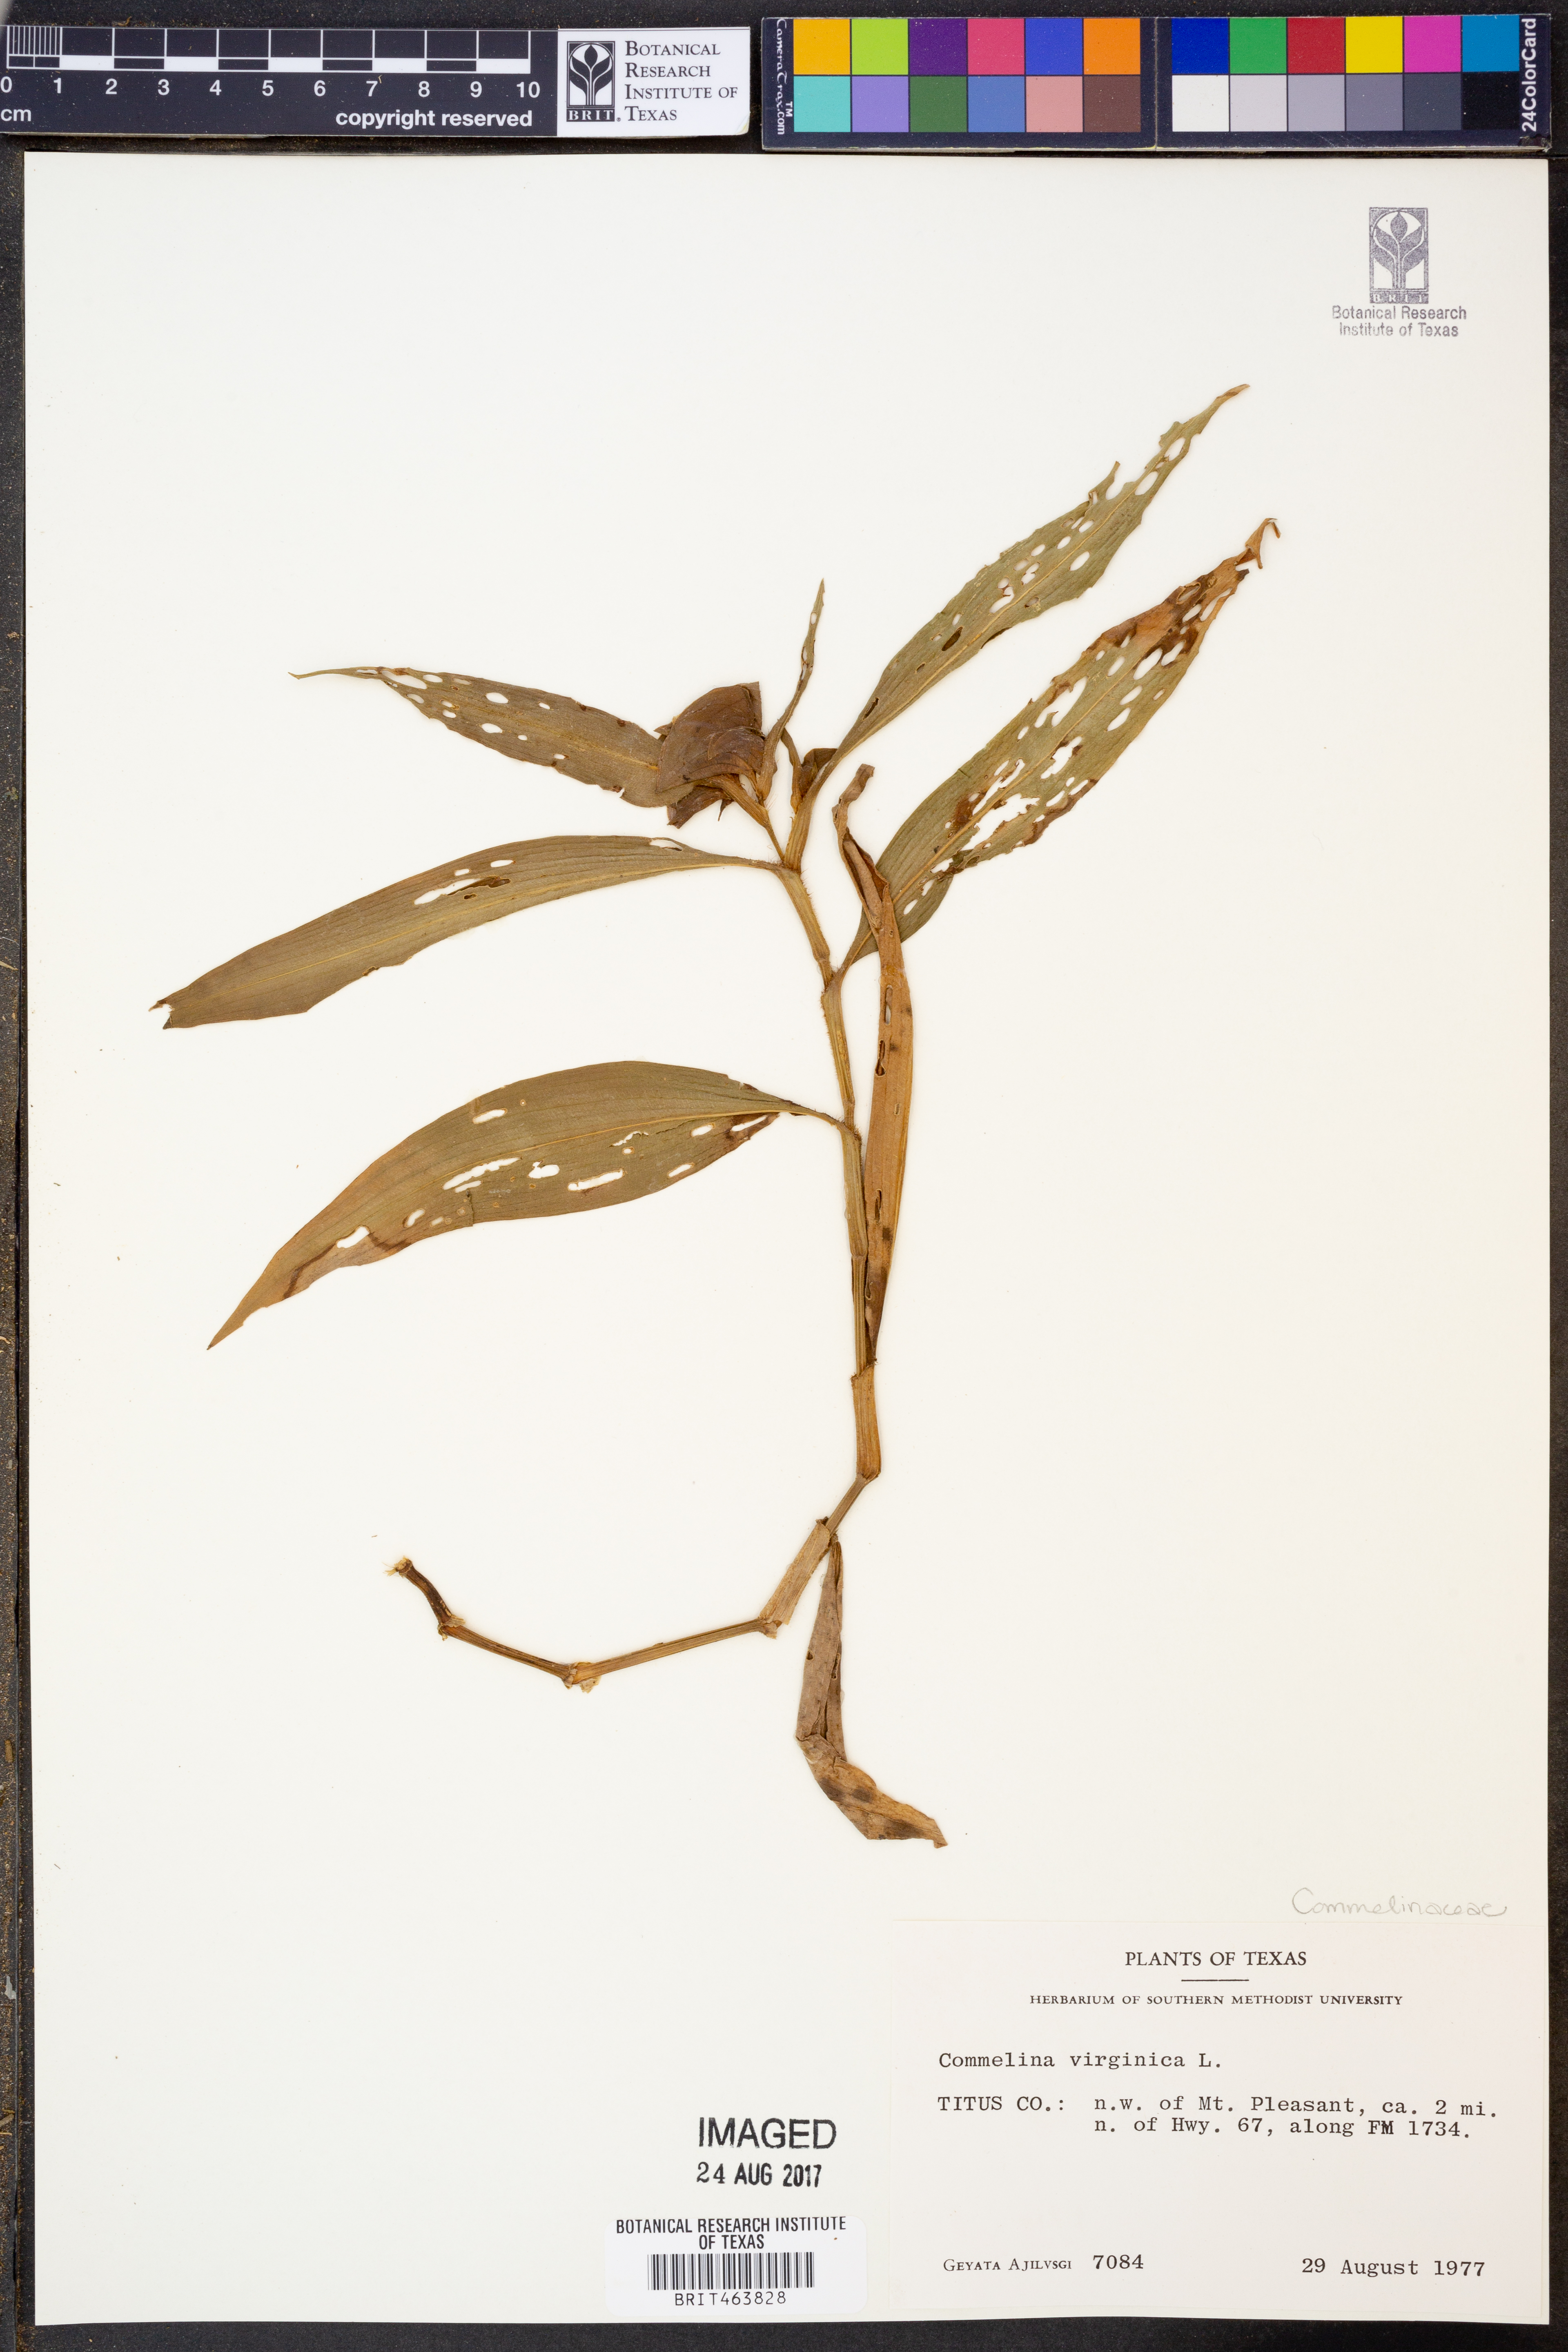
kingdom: Plantae
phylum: Tracheophyta
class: Liliopsida
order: Commelinales
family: Commelinaceae
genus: Commelina
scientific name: Commelina virginica
